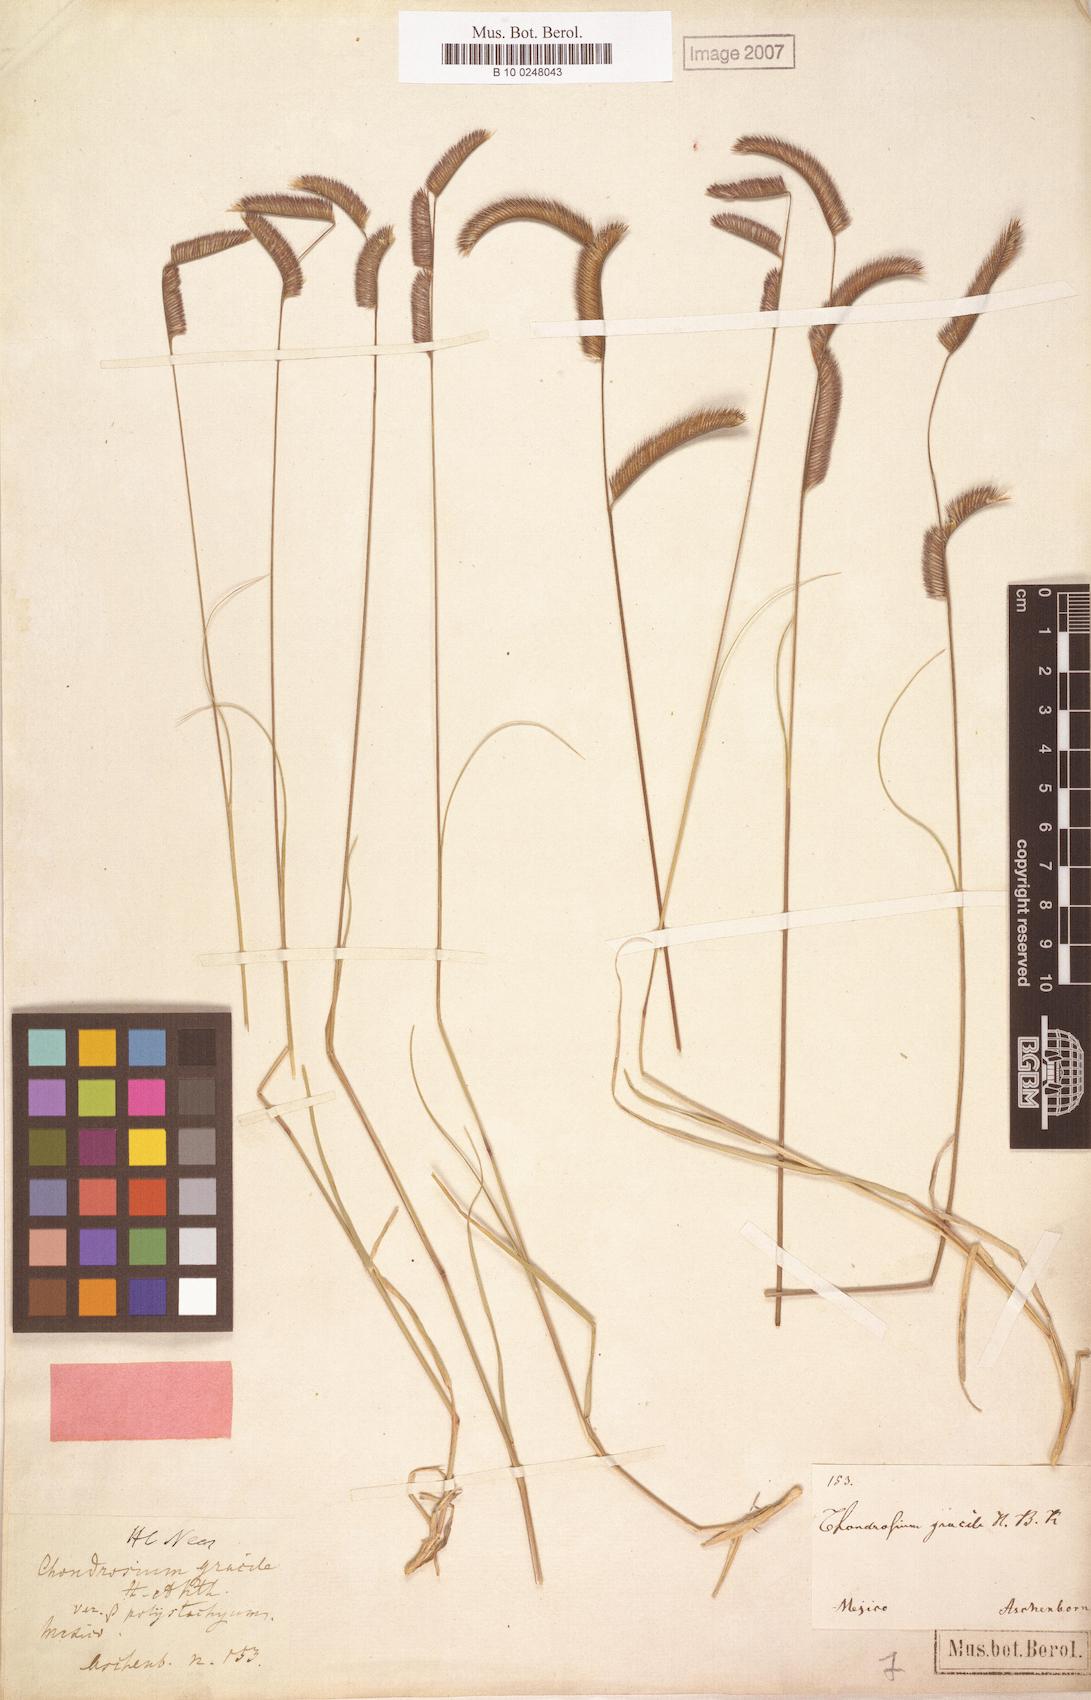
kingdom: Plantae
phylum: Tracheophyta
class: Liliopsida
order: Poales
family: Poaceae
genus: Bouteloua
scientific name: Bouteloua
